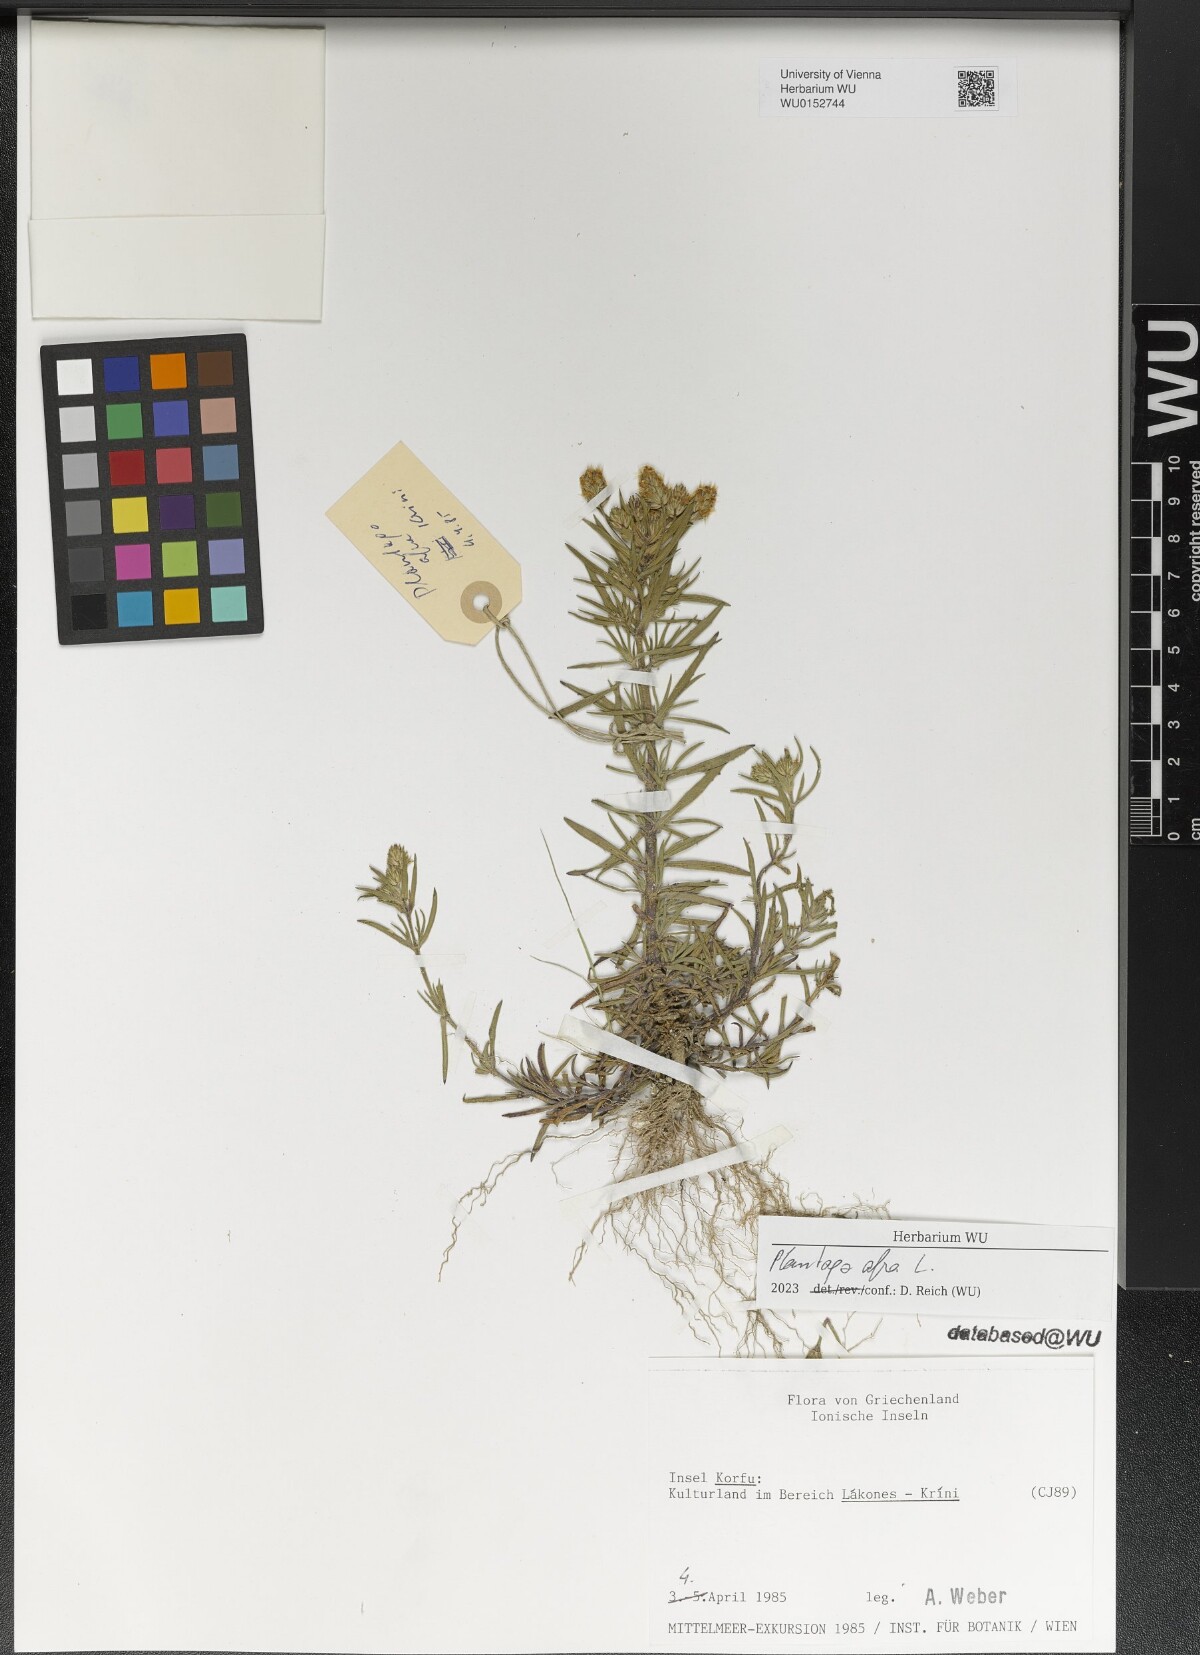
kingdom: Plantae
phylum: Tracheophyta
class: Magnoliopsida
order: Lamiales
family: Plantaginaceae
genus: Plantago
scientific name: Plantago afra
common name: Glandular plantain
